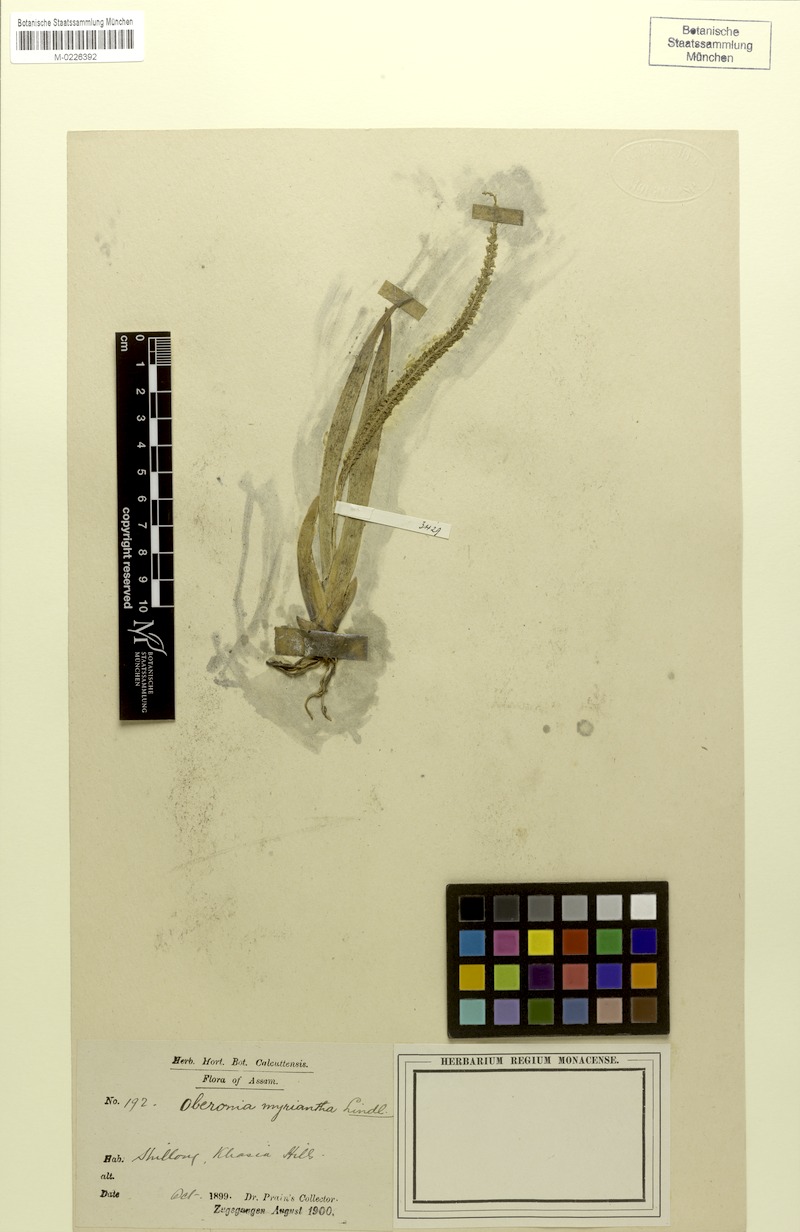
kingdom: Plantae
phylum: Tracheophyta
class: Liliopsida
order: Asparagales
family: Orchidaceae
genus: Oberonia
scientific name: Oberonia acaulis
